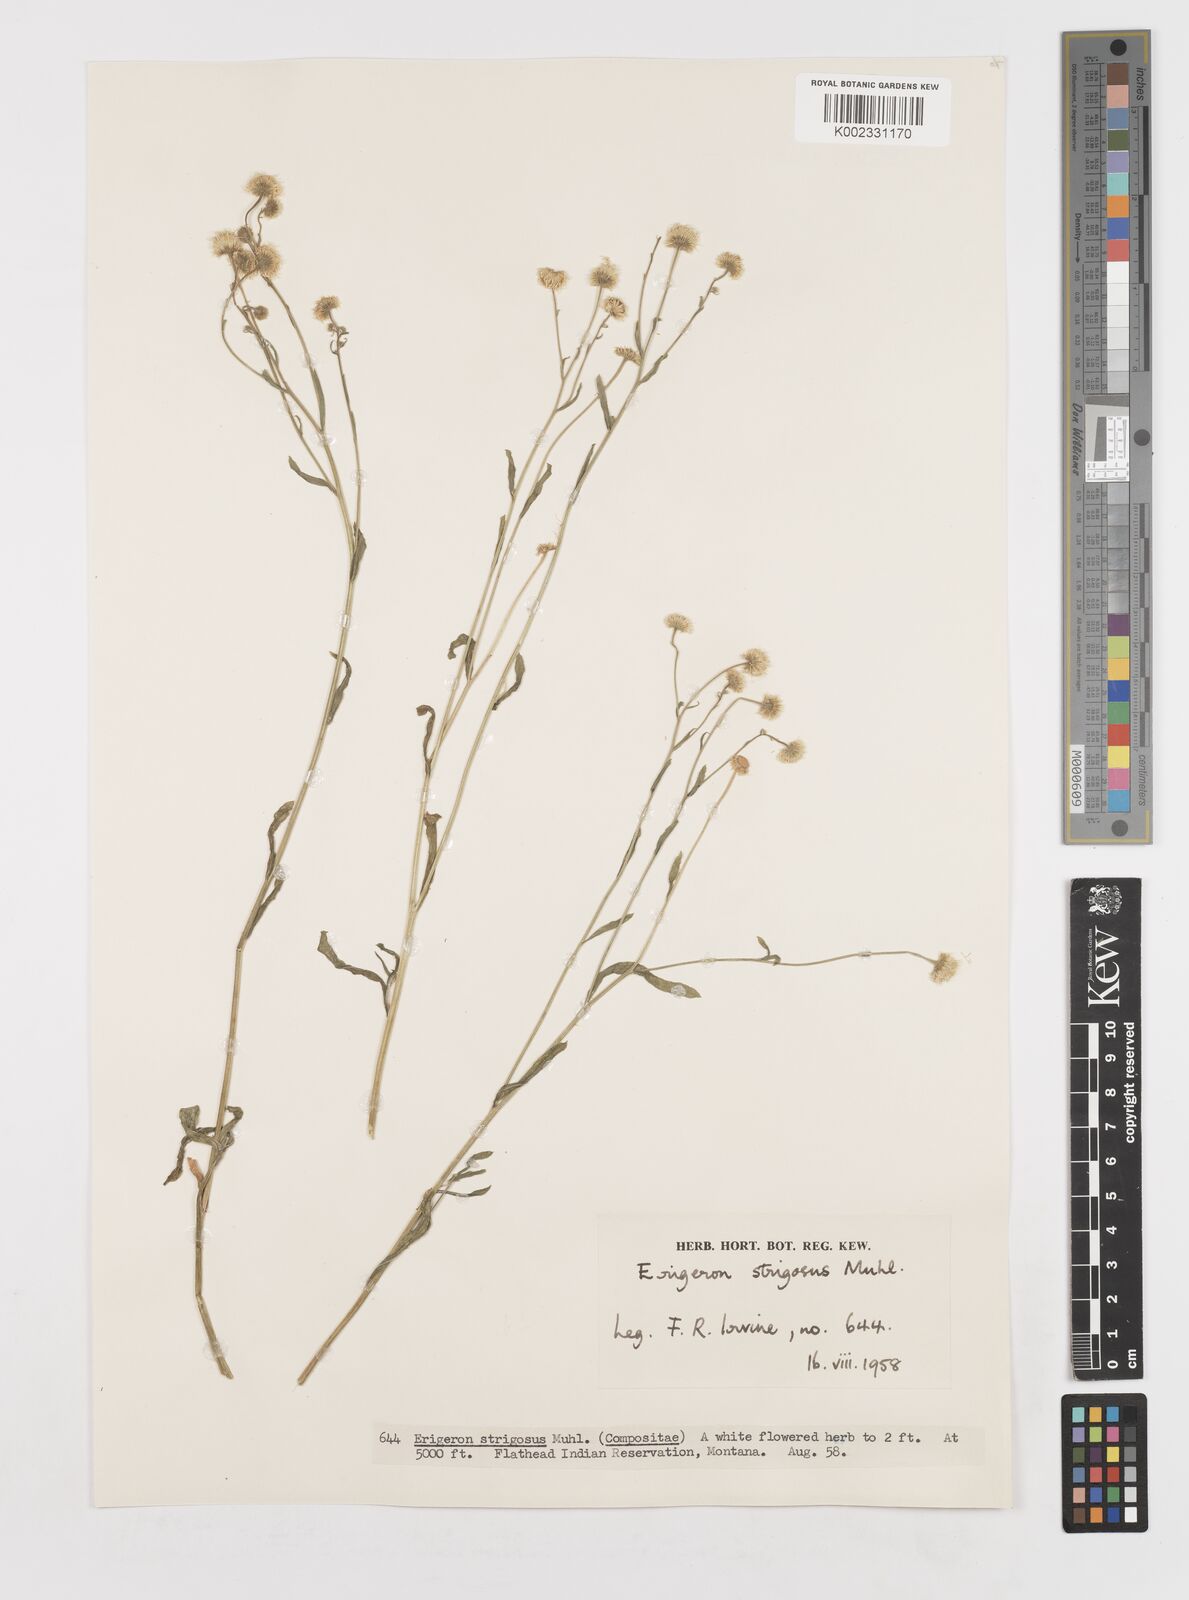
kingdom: Plantae
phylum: Tracheophyta
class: Magnoliopsida
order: Asterales
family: Asteraceae
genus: Erigeron
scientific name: Erigeron strigosus
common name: Common eastern fleabane
